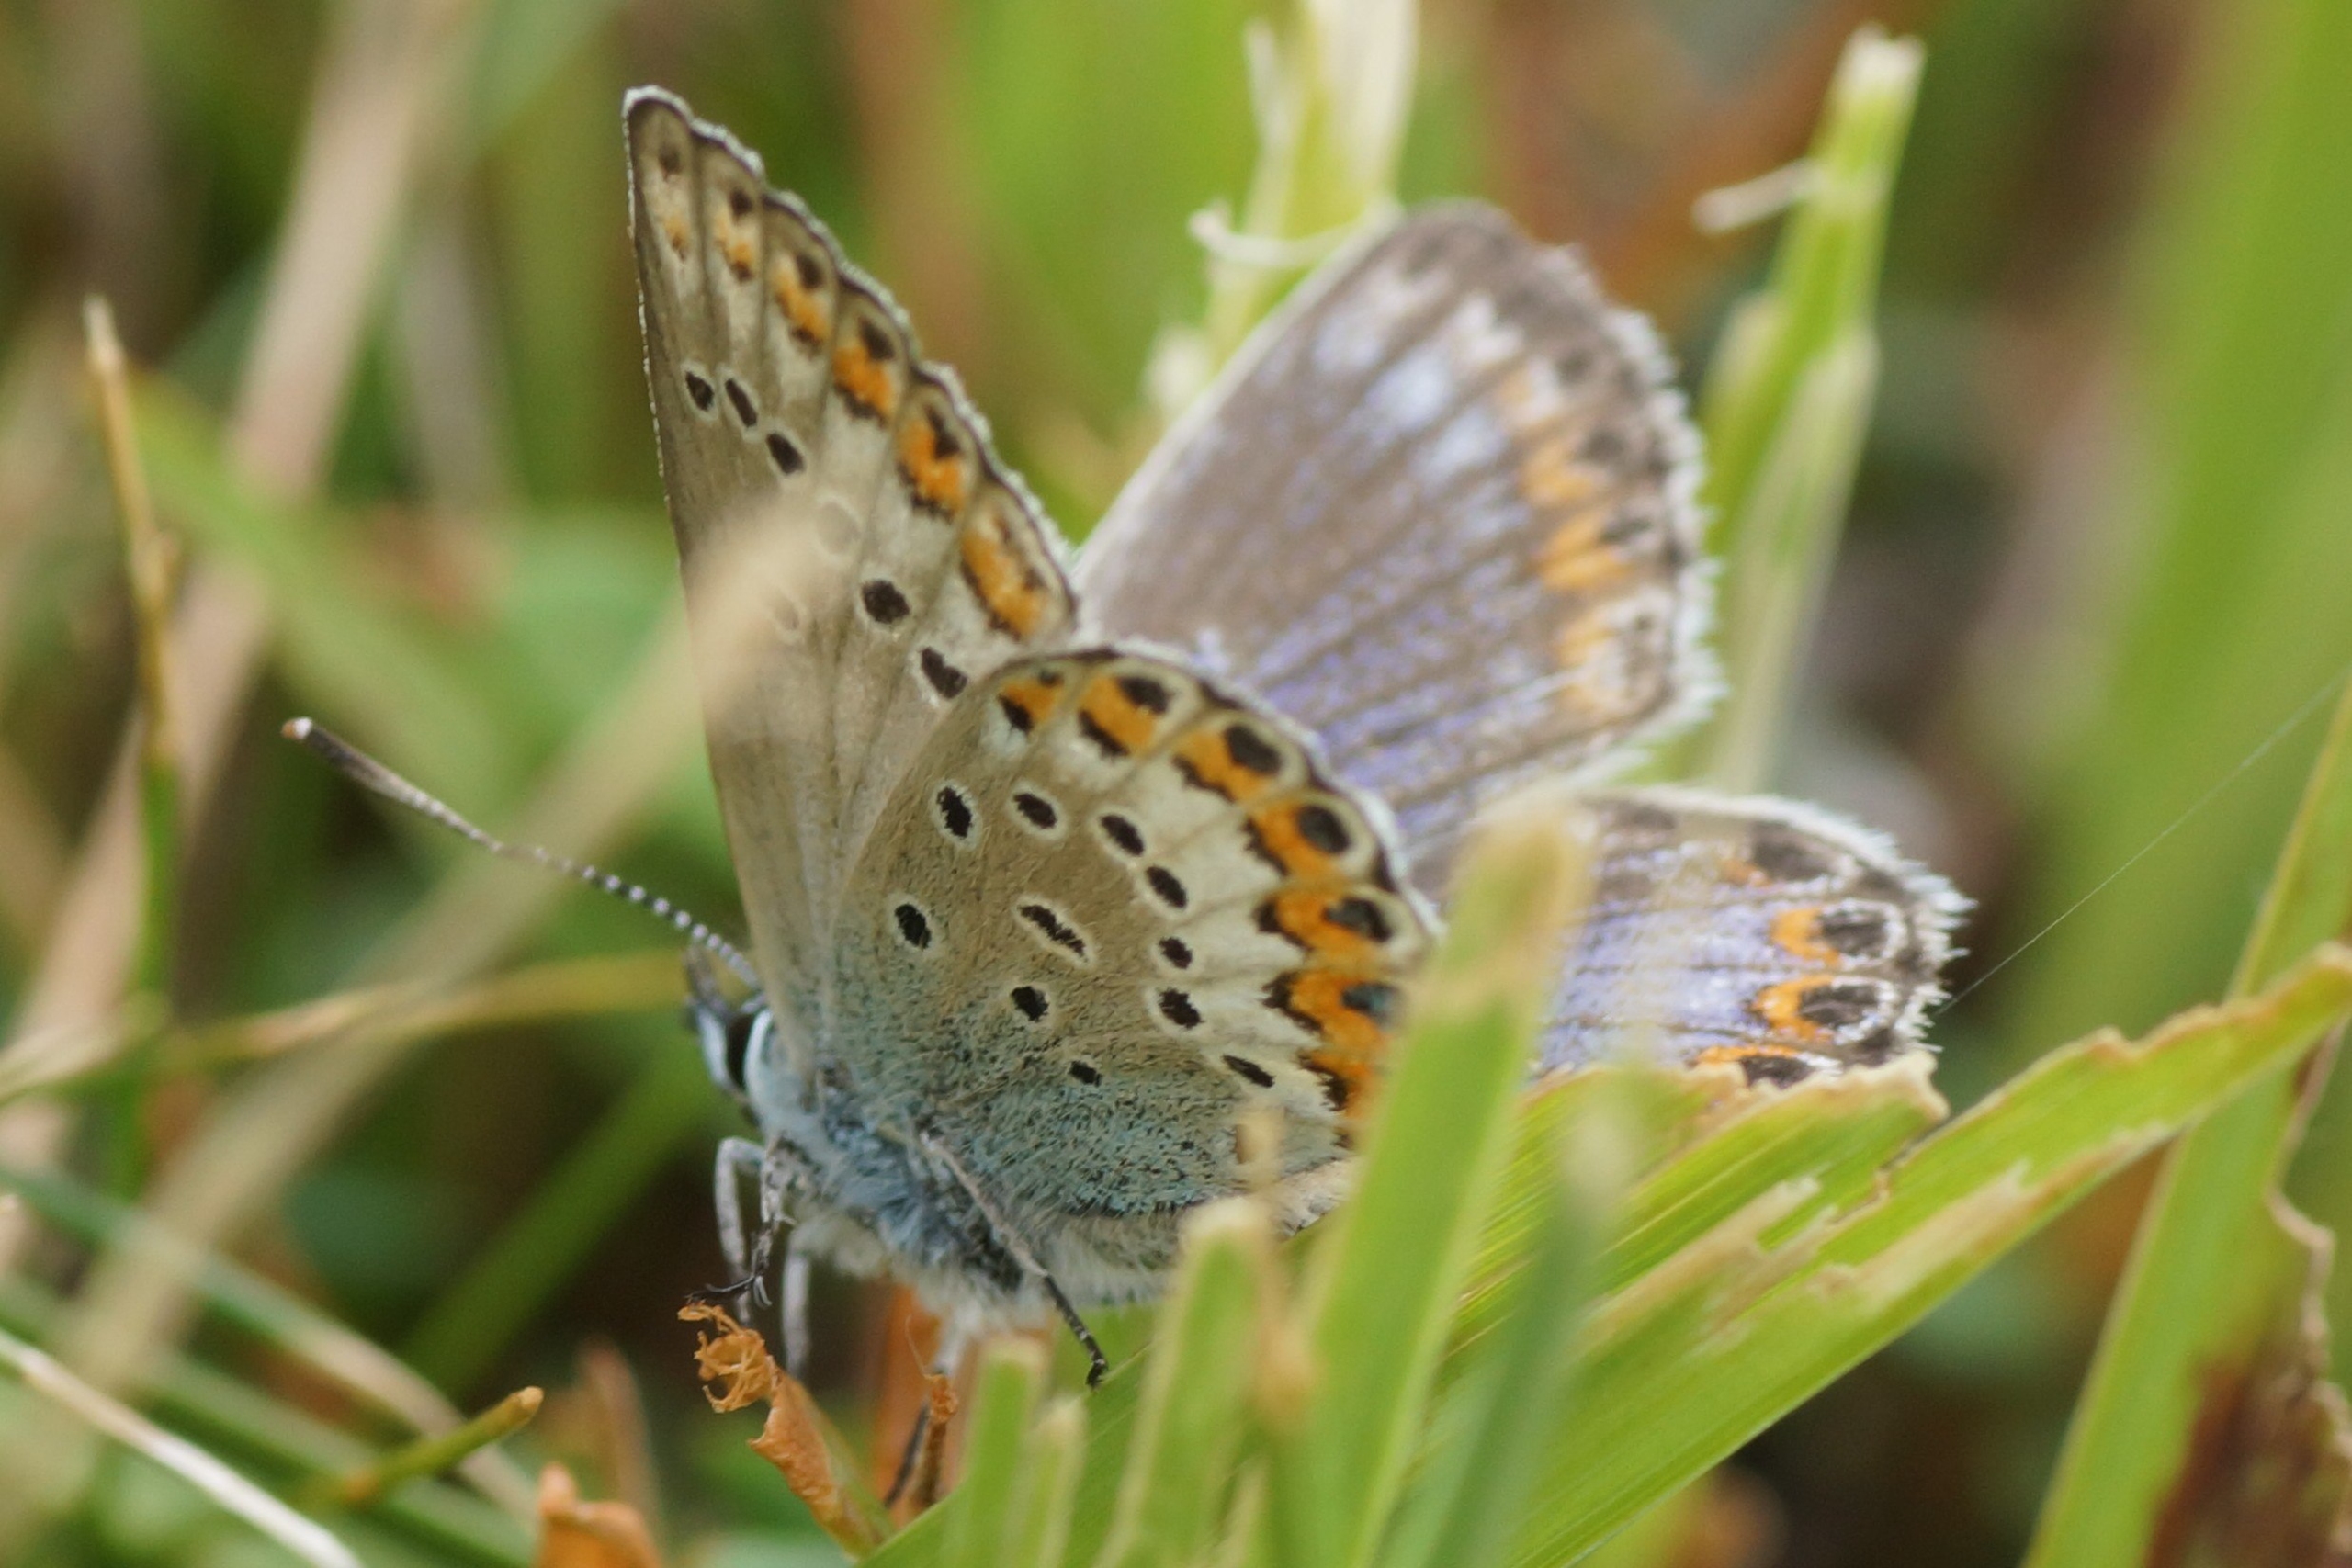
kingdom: Animalia
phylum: Arthropoda
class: Insecta
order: Lepidoptera
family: Lycaenidae
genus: Lycaeides
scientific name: Lycaeides idas
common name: Foranderlig blåfugl
